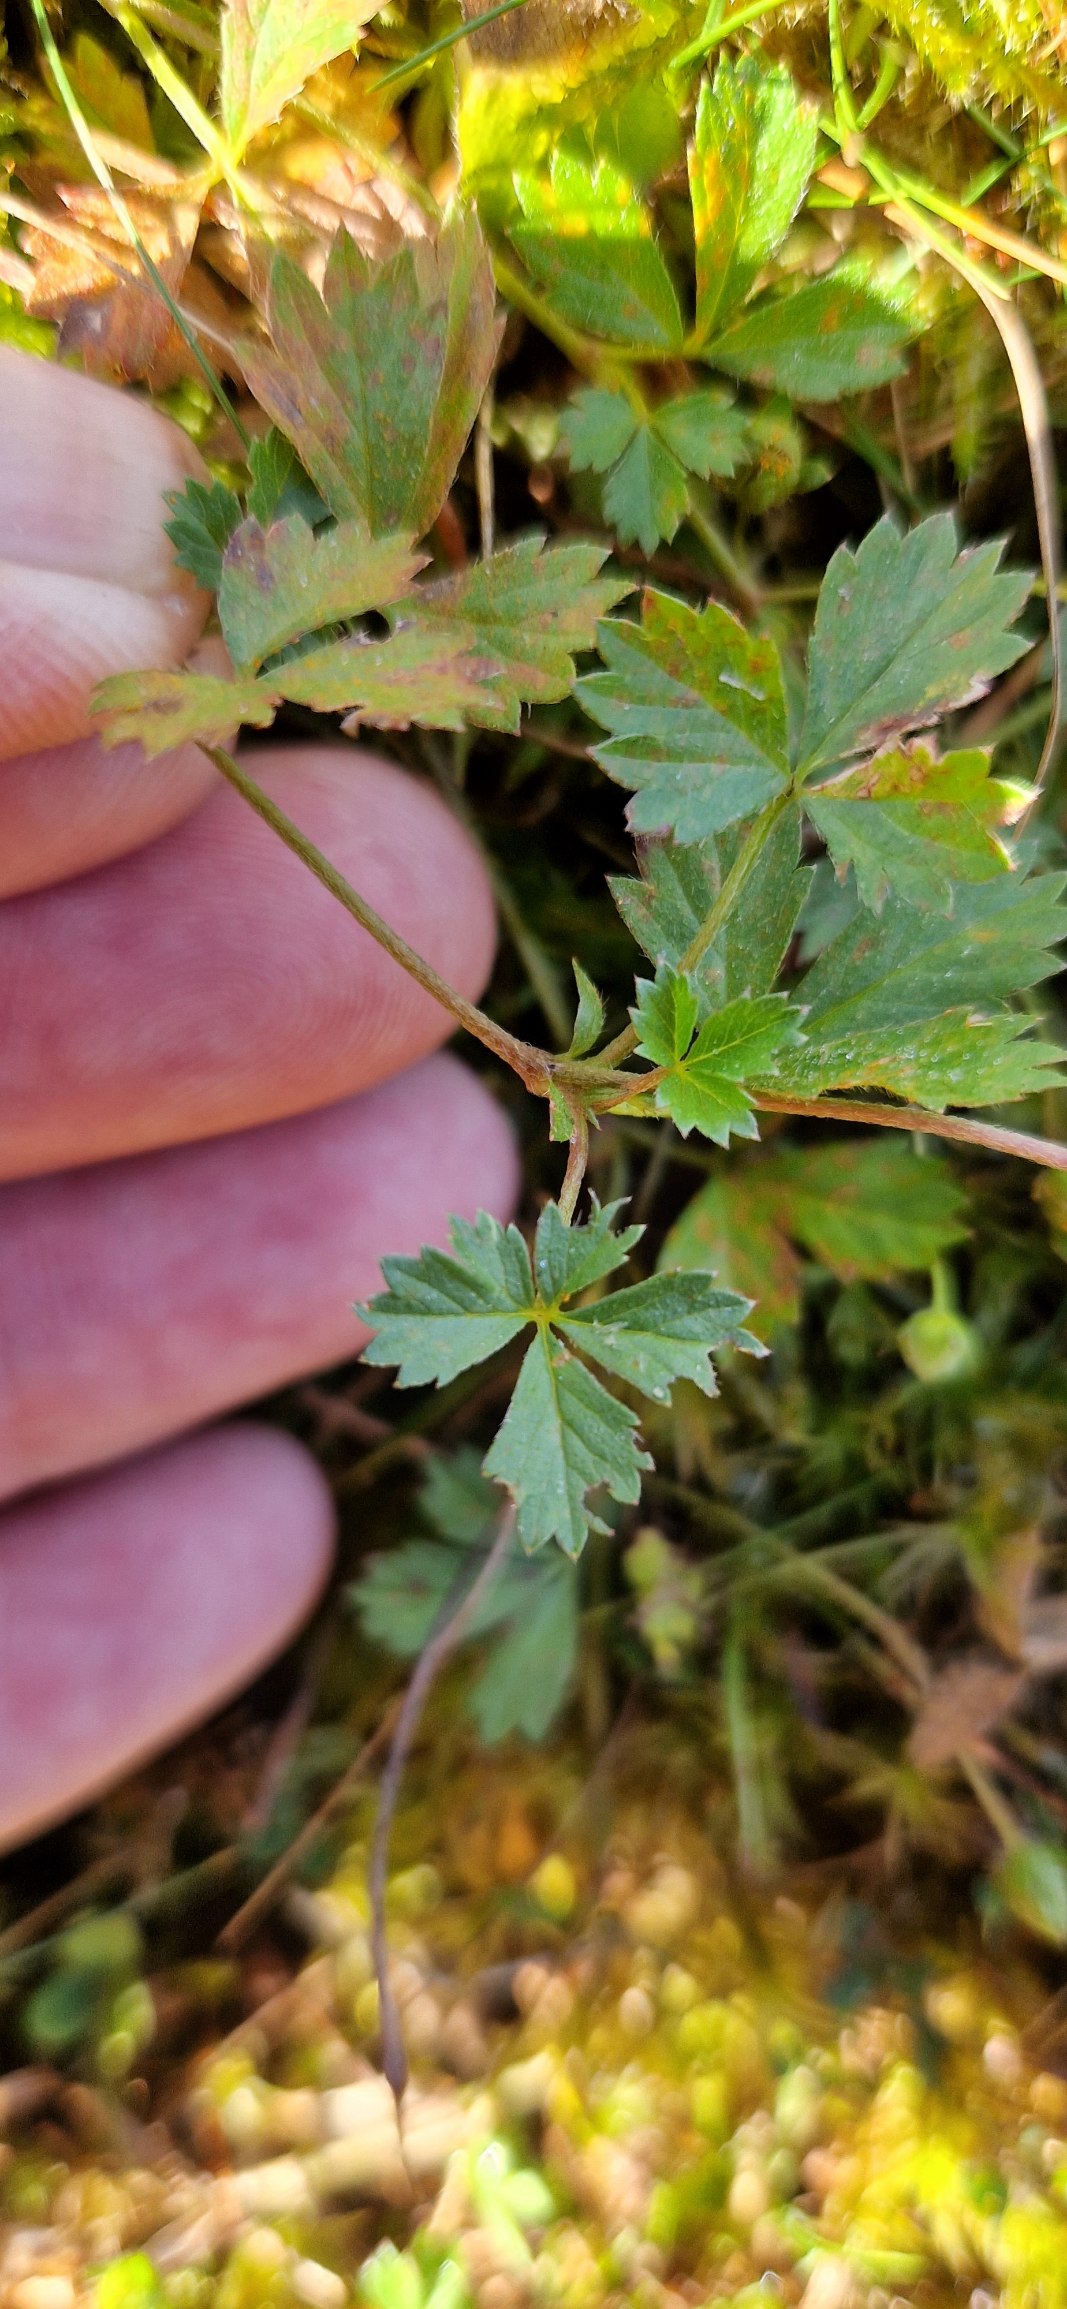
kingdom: Plantae
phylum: Tracheophyta
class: Magnoliopsida
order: Rosales
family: Rosaceae
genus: Potentilla
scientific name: Potentilla anglica
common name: Liggende potentil
